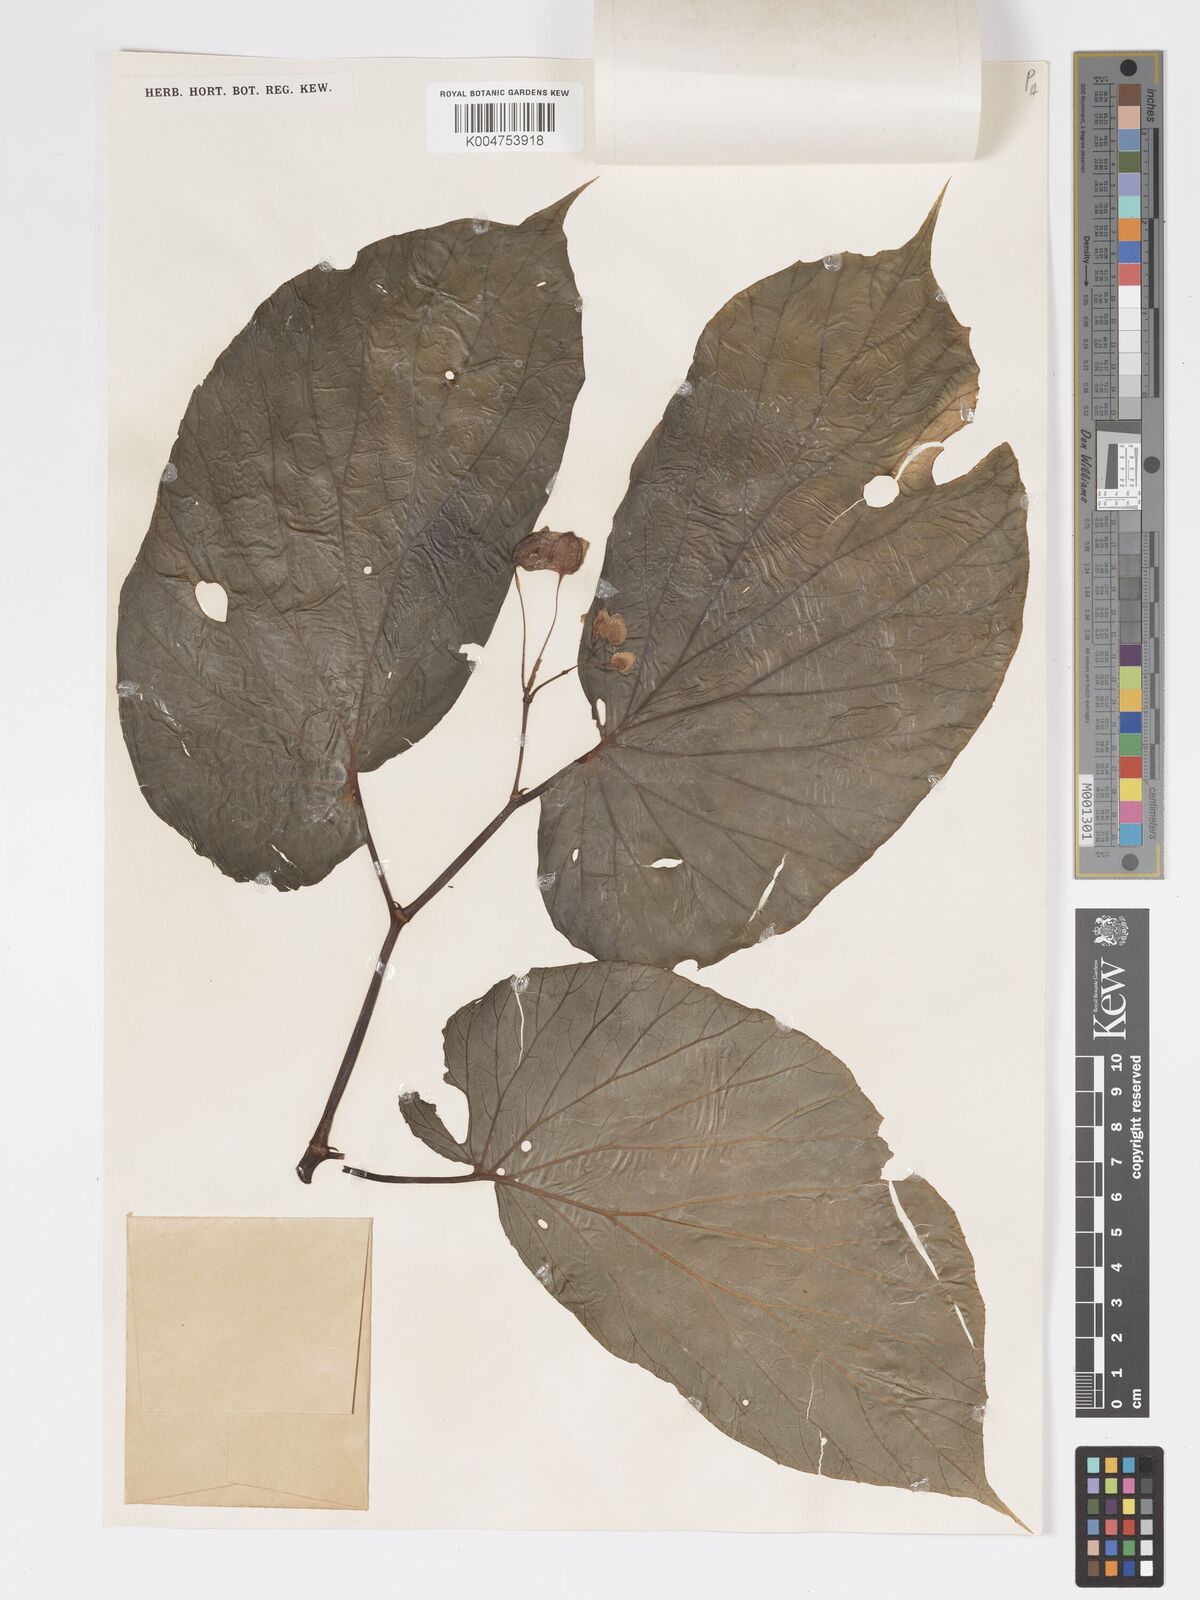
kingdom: Plantae
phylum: Tracheophyta
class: Magnoliopsida
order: Cucurbitales
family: Begoniaceae
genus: Begonia
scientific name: Begonia lauterbachii
